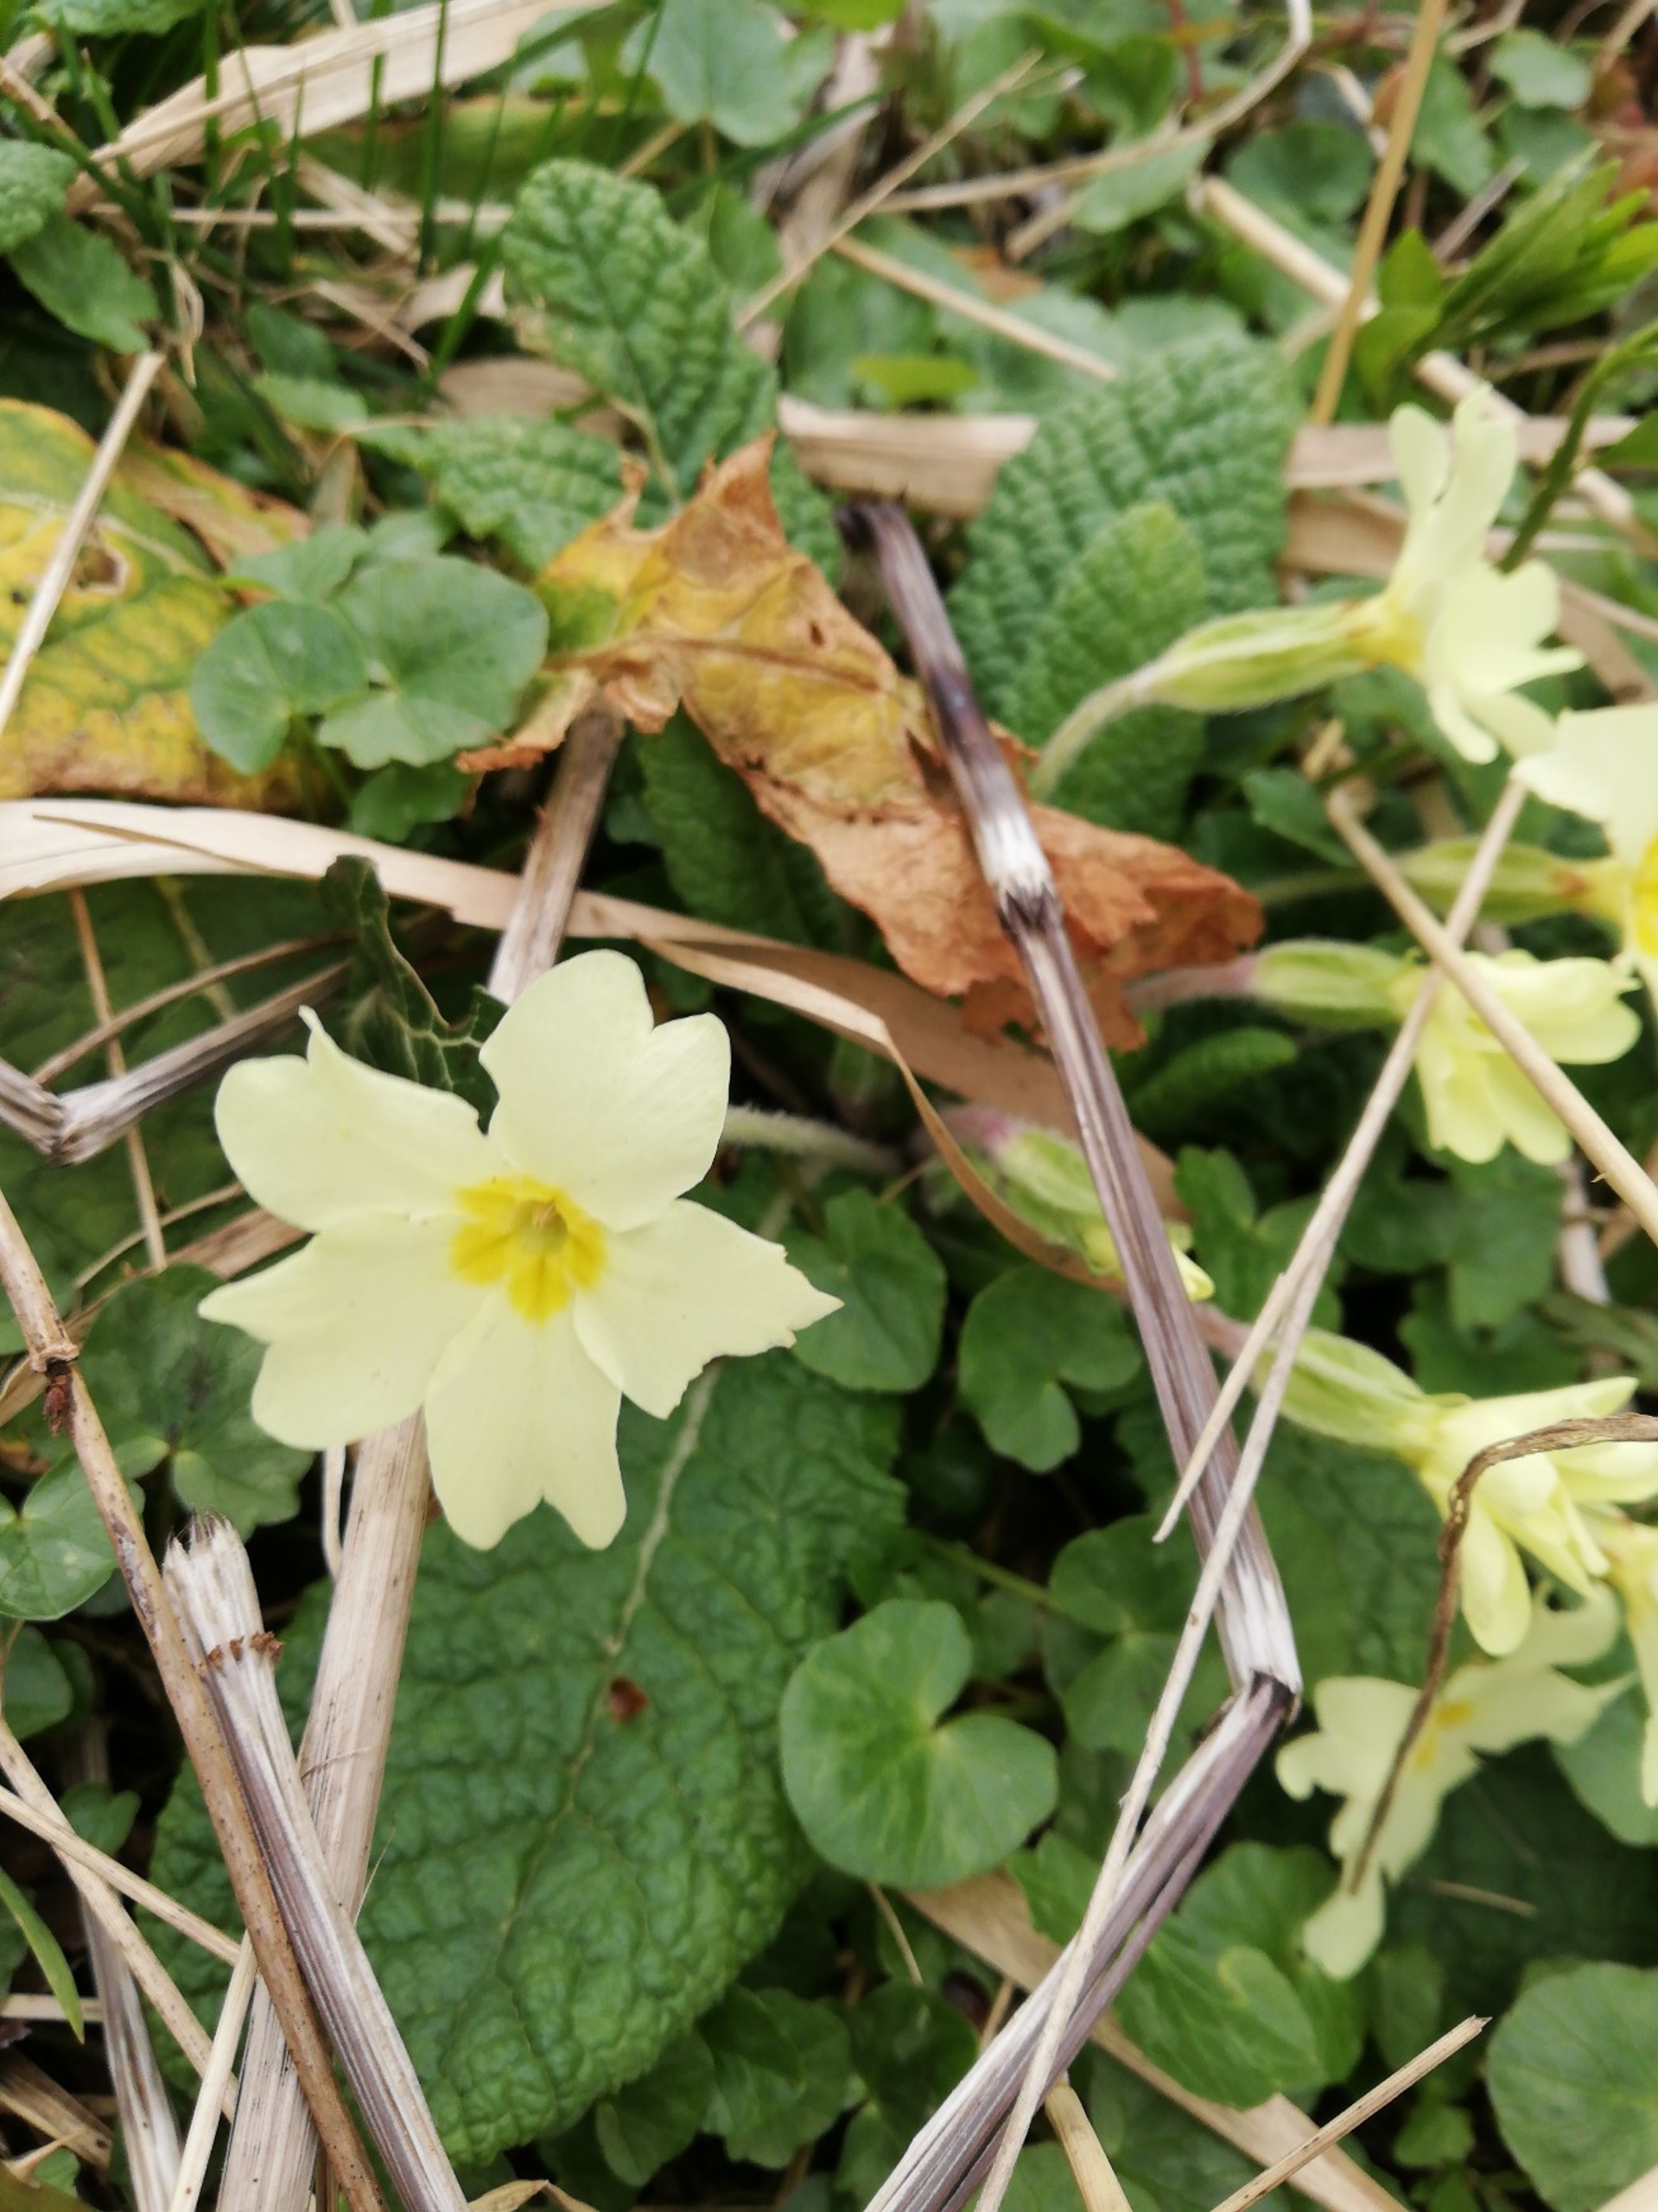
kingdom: Plantae
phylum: Tracheophyta
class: Magnoliopsida
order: Ericales
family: Primulaceae
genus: Primula
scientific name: Primula vulgaris
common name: Storblomstret kodriver
